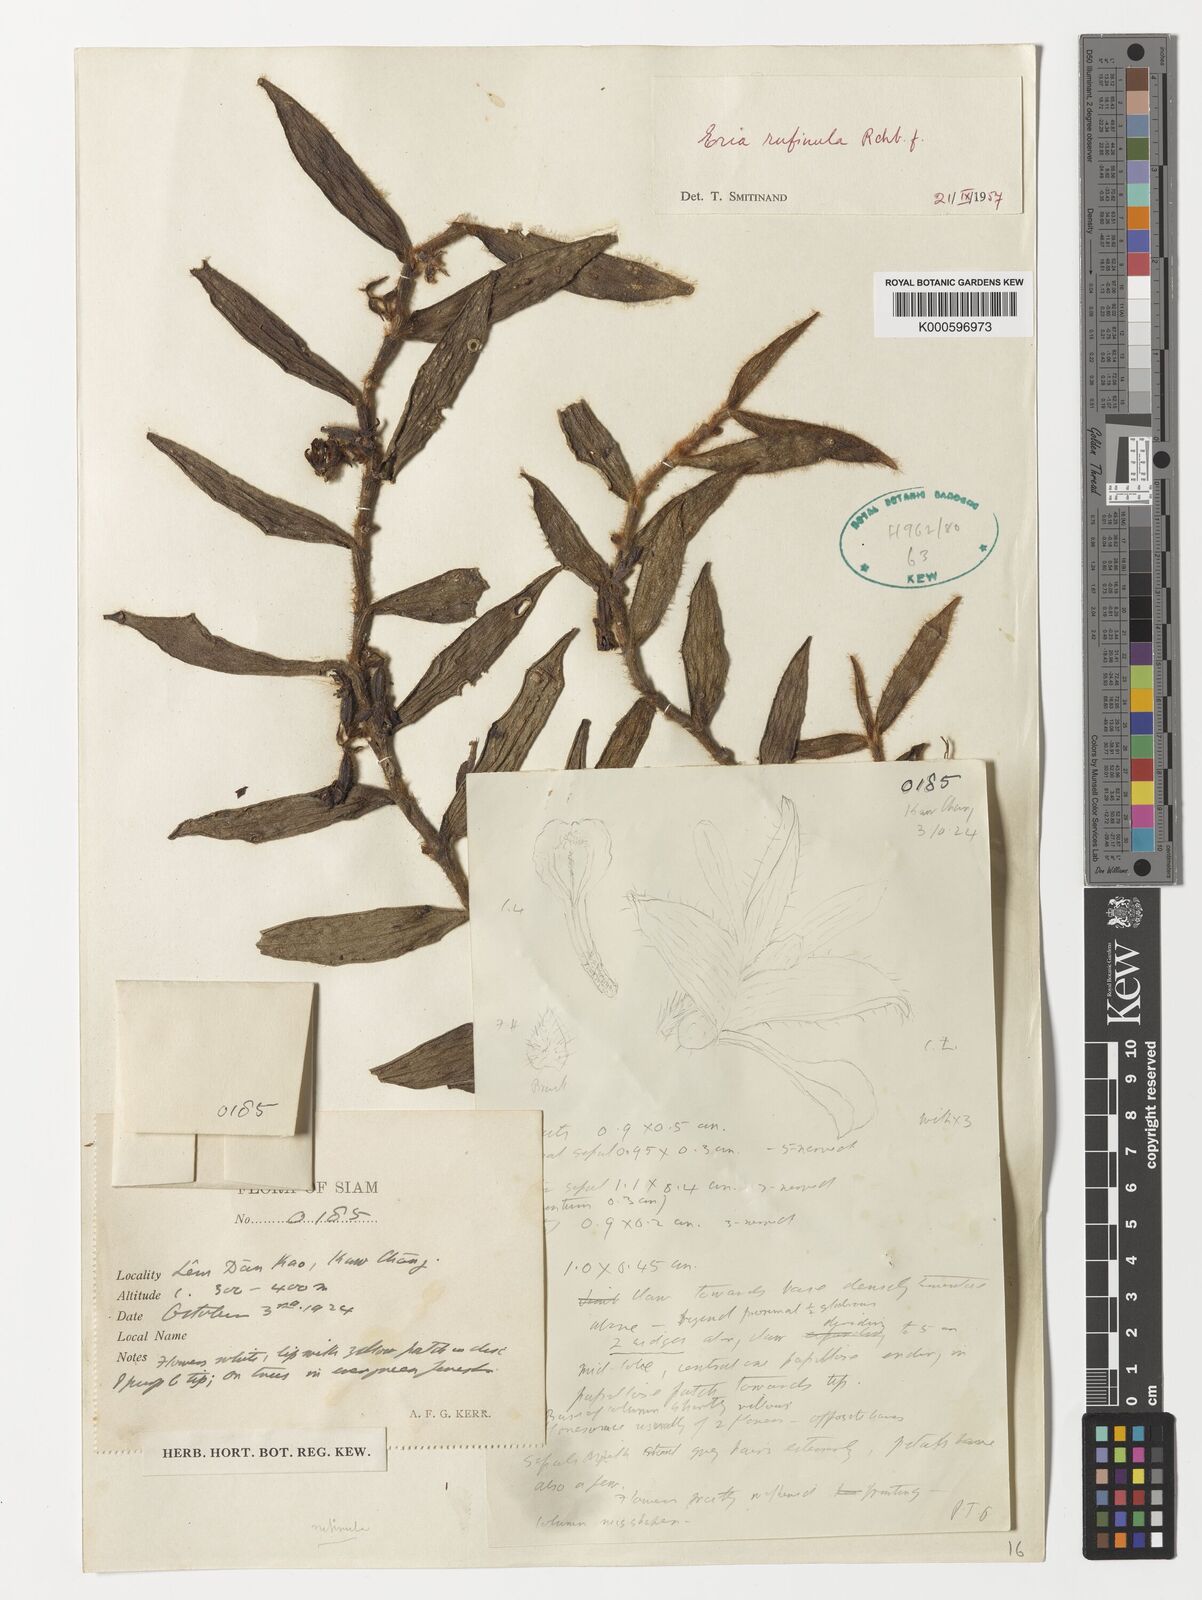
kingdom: Plantae
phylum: Tracheophyta
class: Liliopsida
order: Asparagales
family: Orchidaceae
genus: Trichotosia
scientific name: Trichotosia pulvinata
